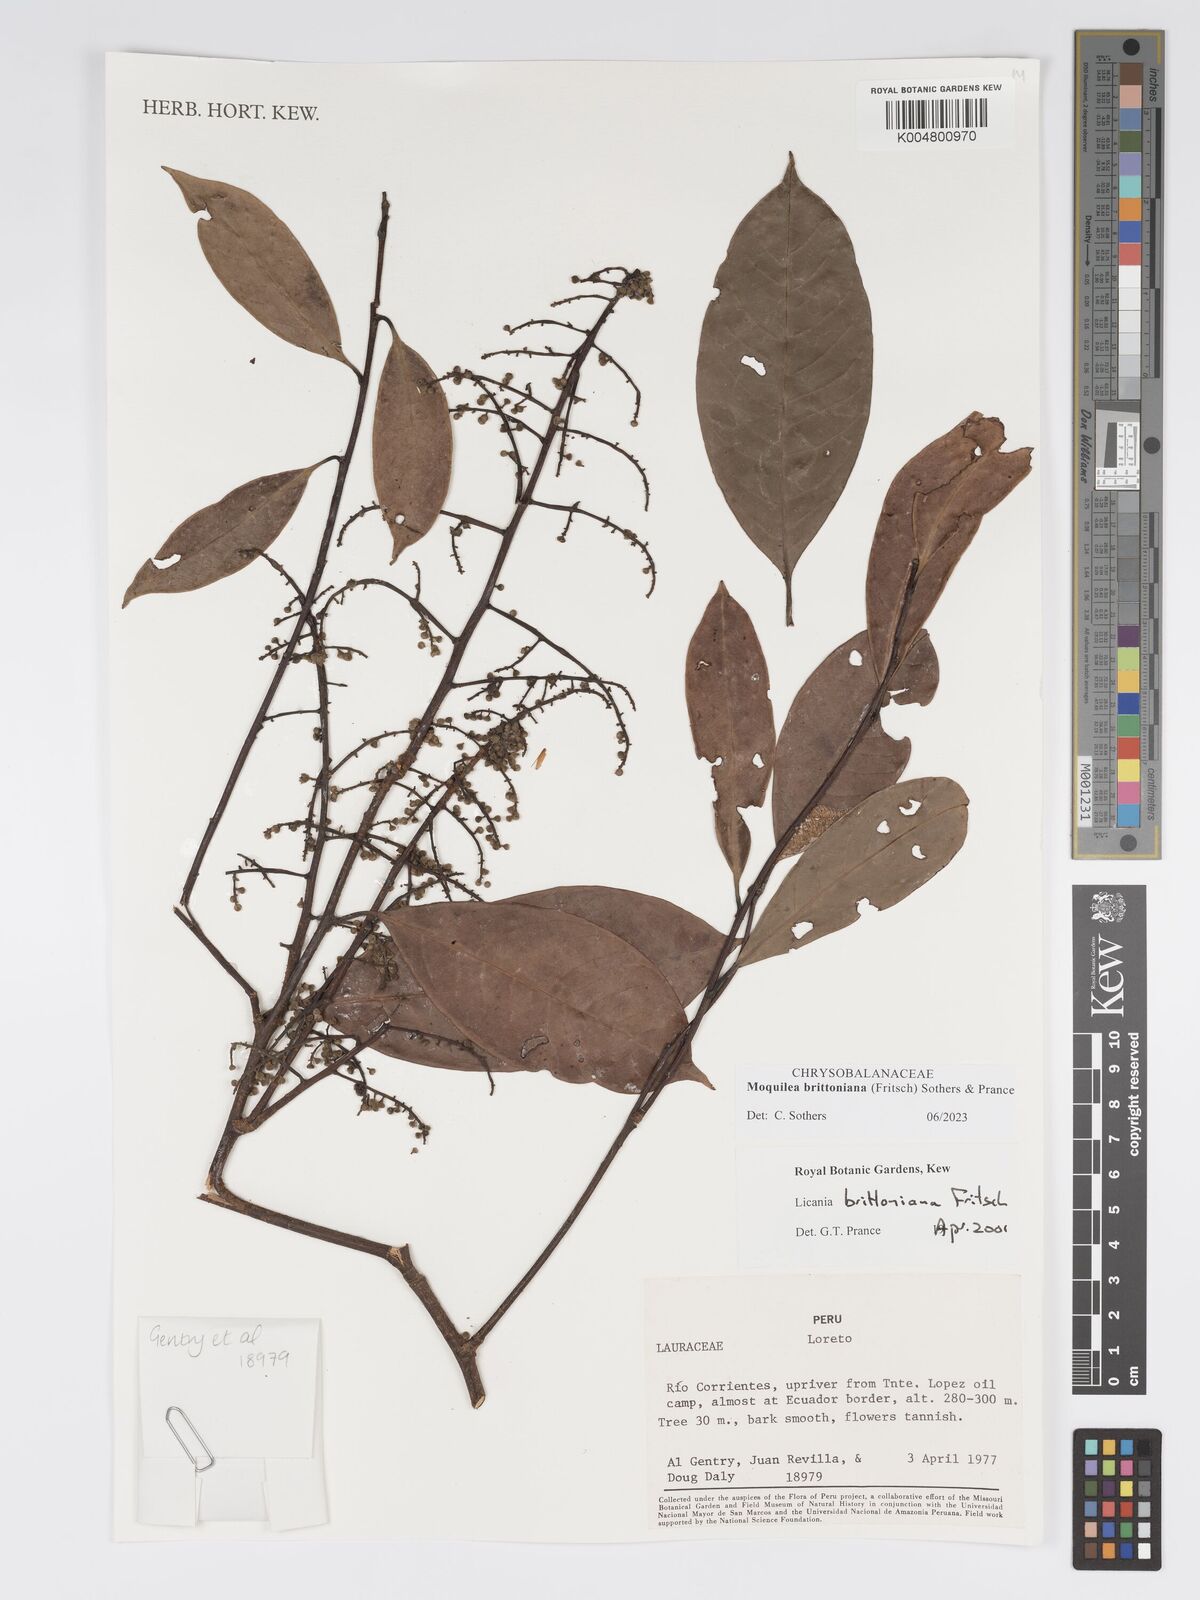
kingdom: Plantae
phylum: Tracheophyta
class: Magnoliopsida
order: Malpighiales
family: Chrysobalanaceae
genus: Moquilea
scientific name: Moquilea brittoniana
